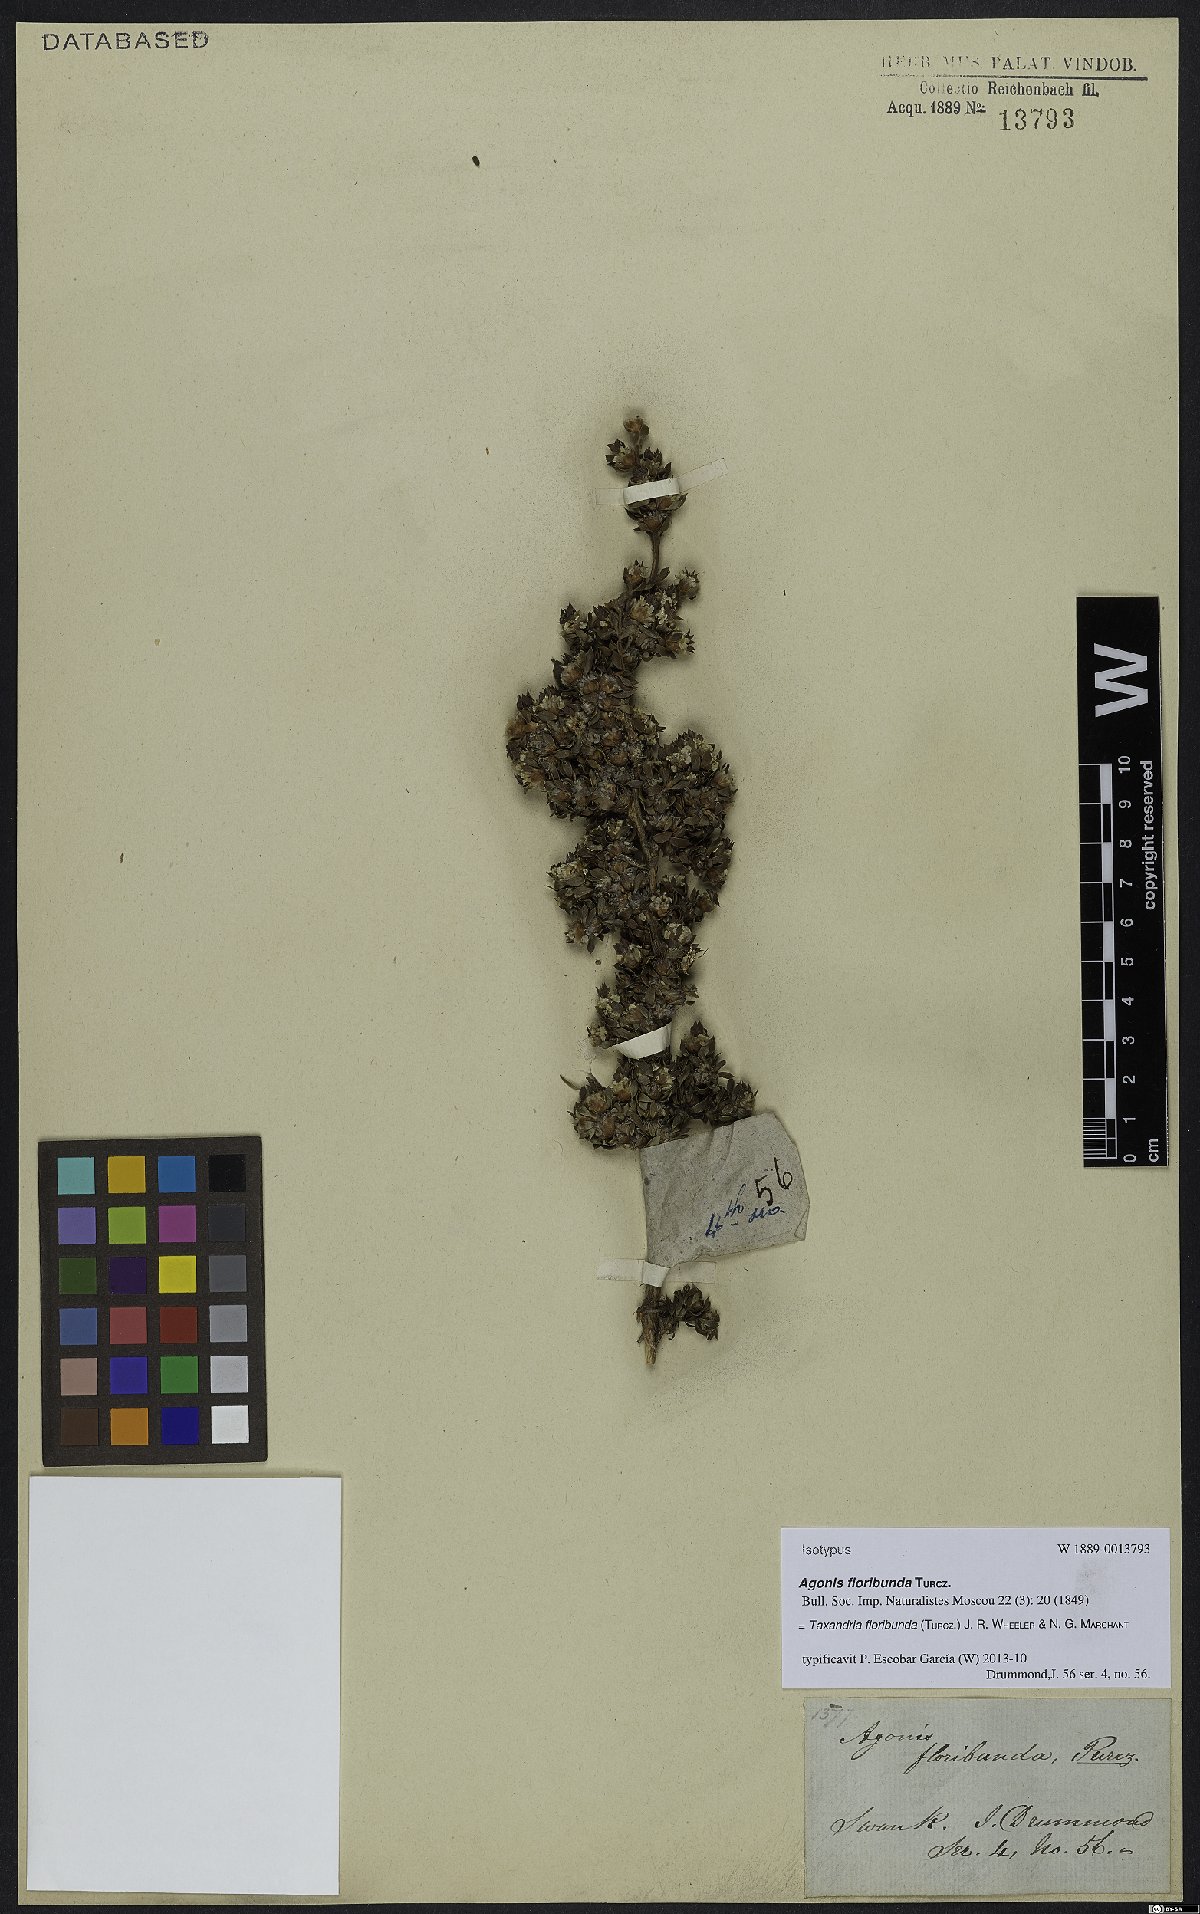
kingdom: Plantae
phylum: Tracheophyta
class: Magnoliopsida
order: Myrtales
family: Myrtaceae
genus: Taxandria
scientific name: Taxandria floribunda
